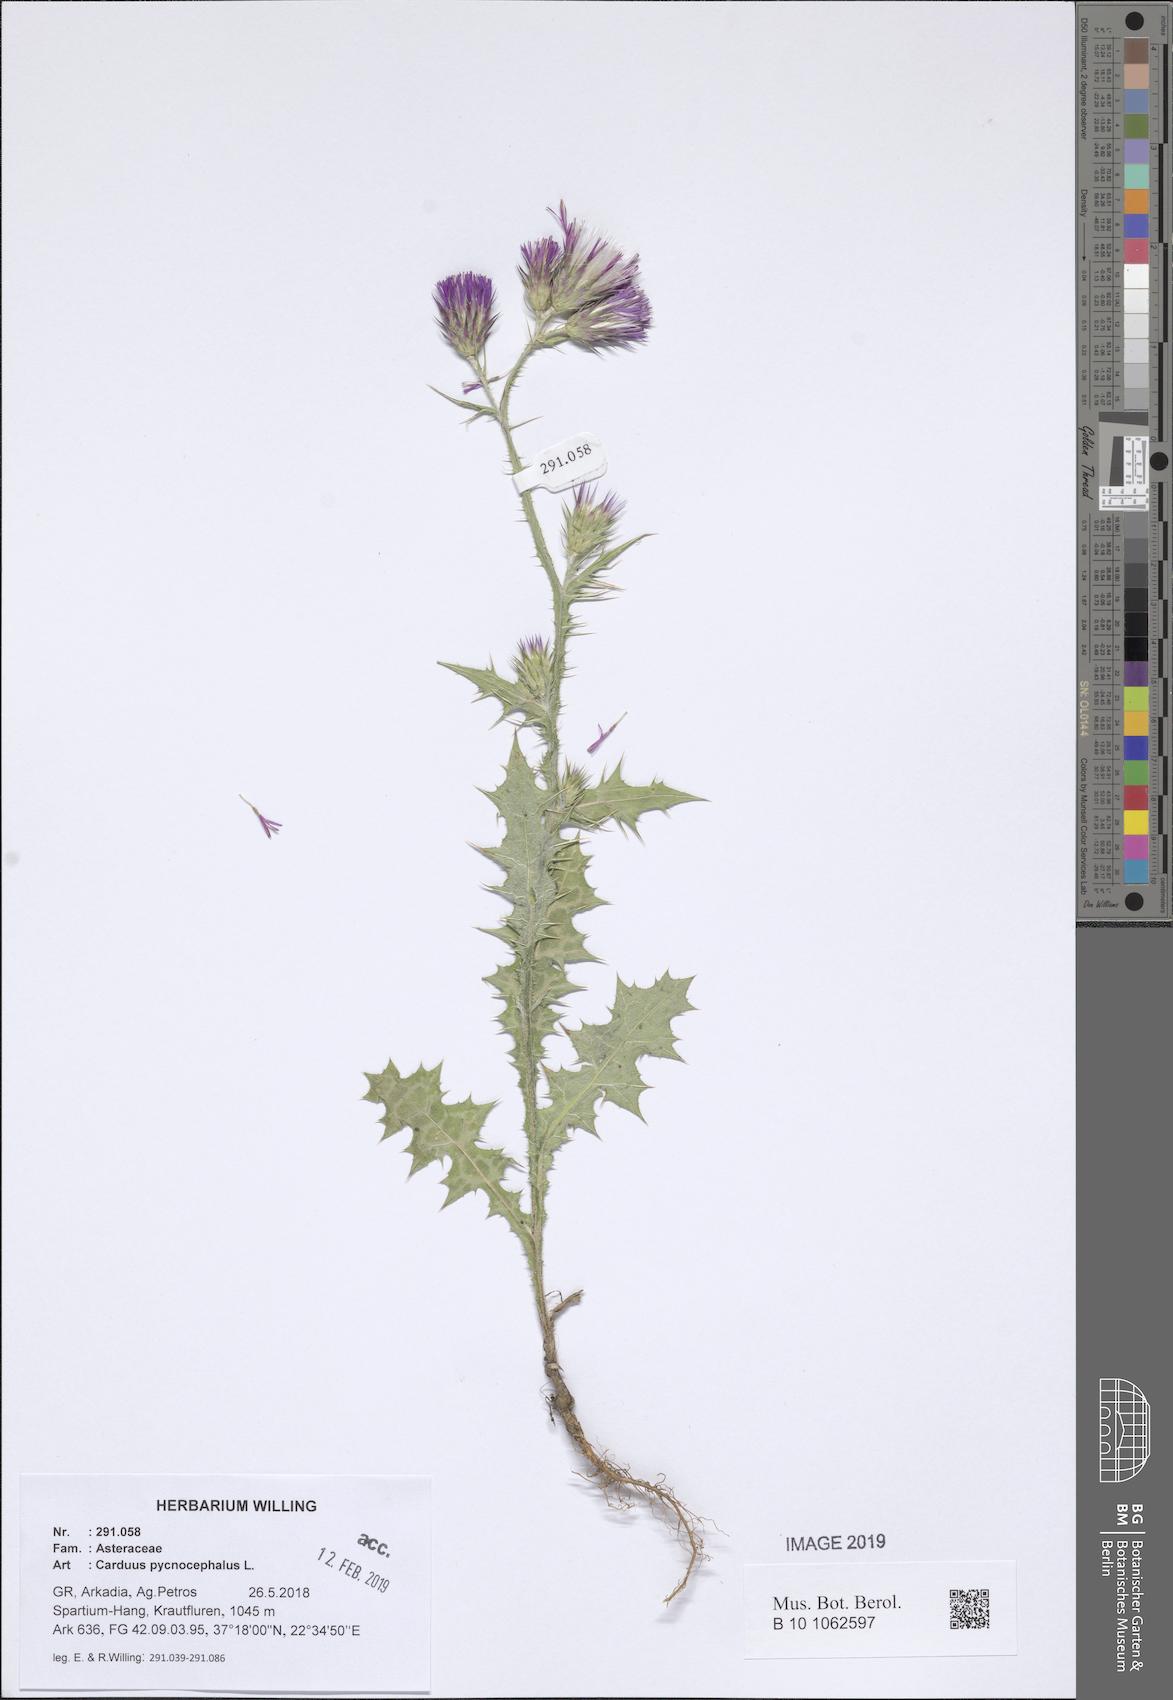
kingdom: Plantae
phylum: Tracheophyta
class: Magnoliopsida
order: Asterales
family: Asteraceae
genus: Carduus
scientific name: Carduus pycnocephalus
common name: Plymouth thistle
